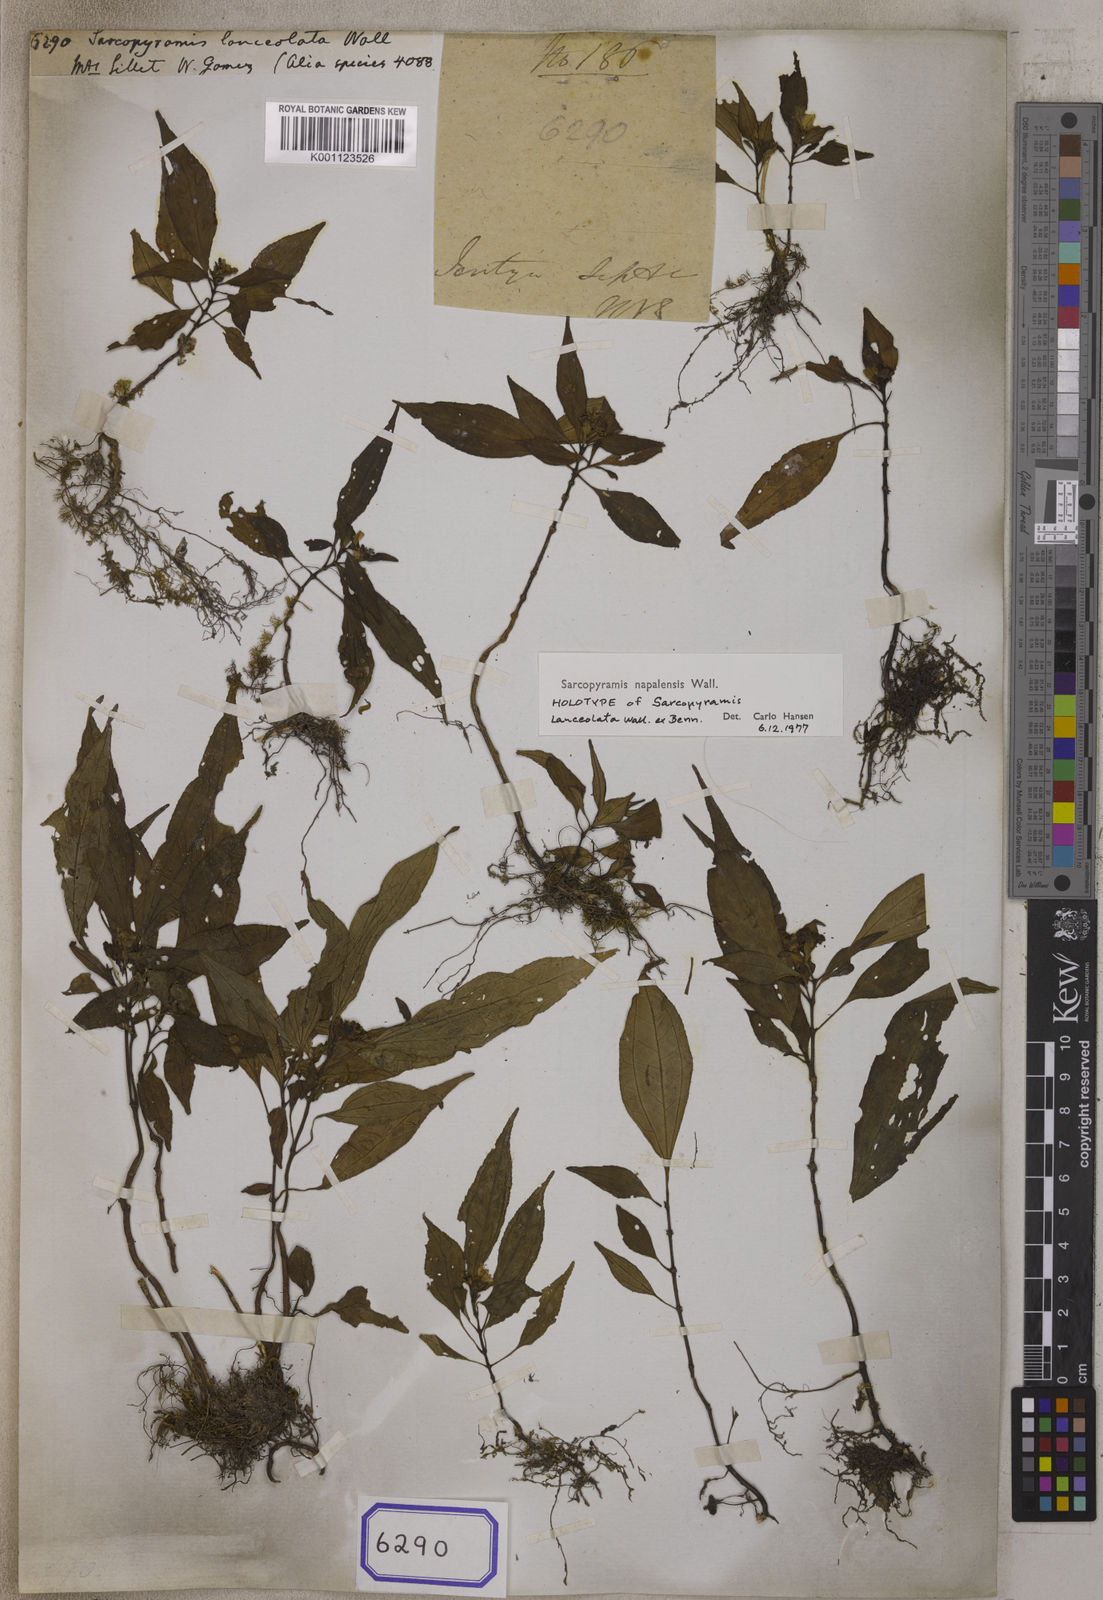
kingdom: Plantae
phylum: Tracheophyta
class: Magnoliopsida
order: Myrtales
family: Melastomataceae
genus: Sarcopyramis
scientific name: Sarcopyramis napalensis
